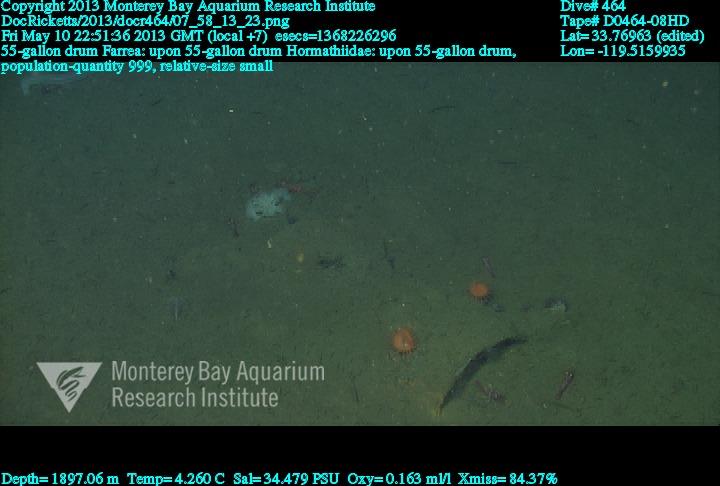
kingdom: Animalia
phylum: Porifera
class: Hexactinellida
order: Sceptrulophora
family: Farreidae
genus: Farrea
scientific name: Farrea
